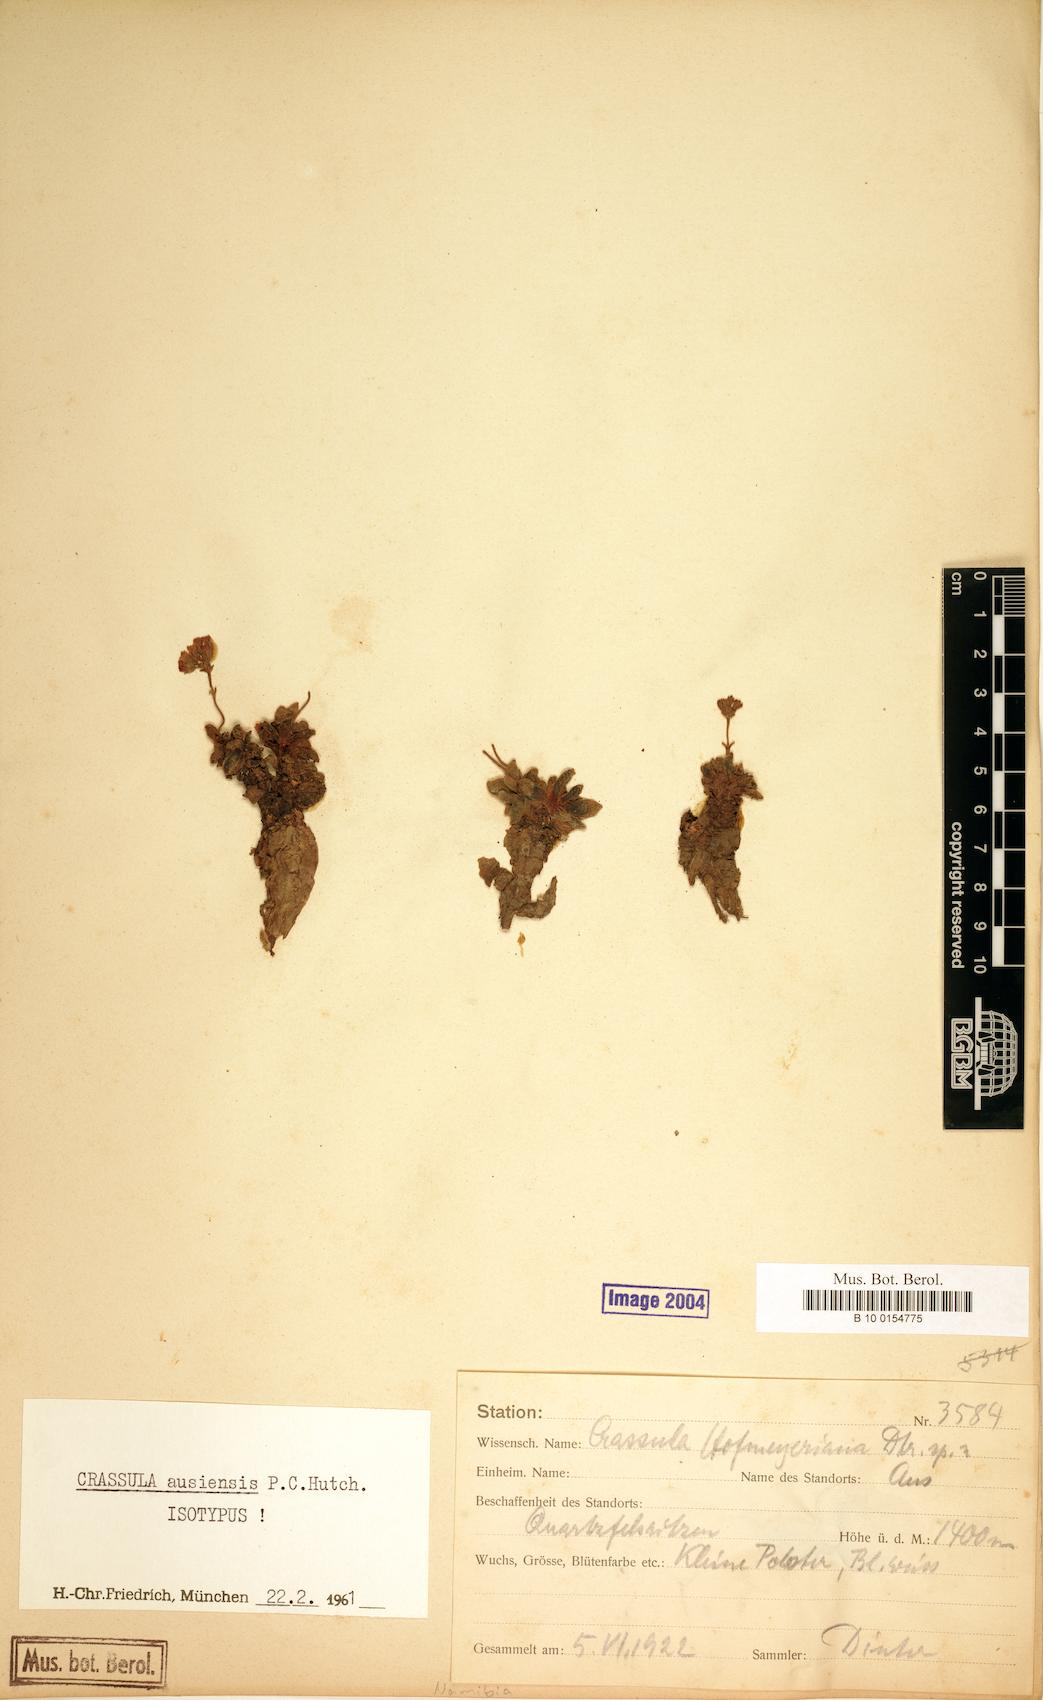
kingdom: Plantae
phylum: Tracheophyta
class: Magnoliopsida
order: Saxifragales
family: Crassulaceae
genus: Crassula
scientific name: Crassula ausensis
